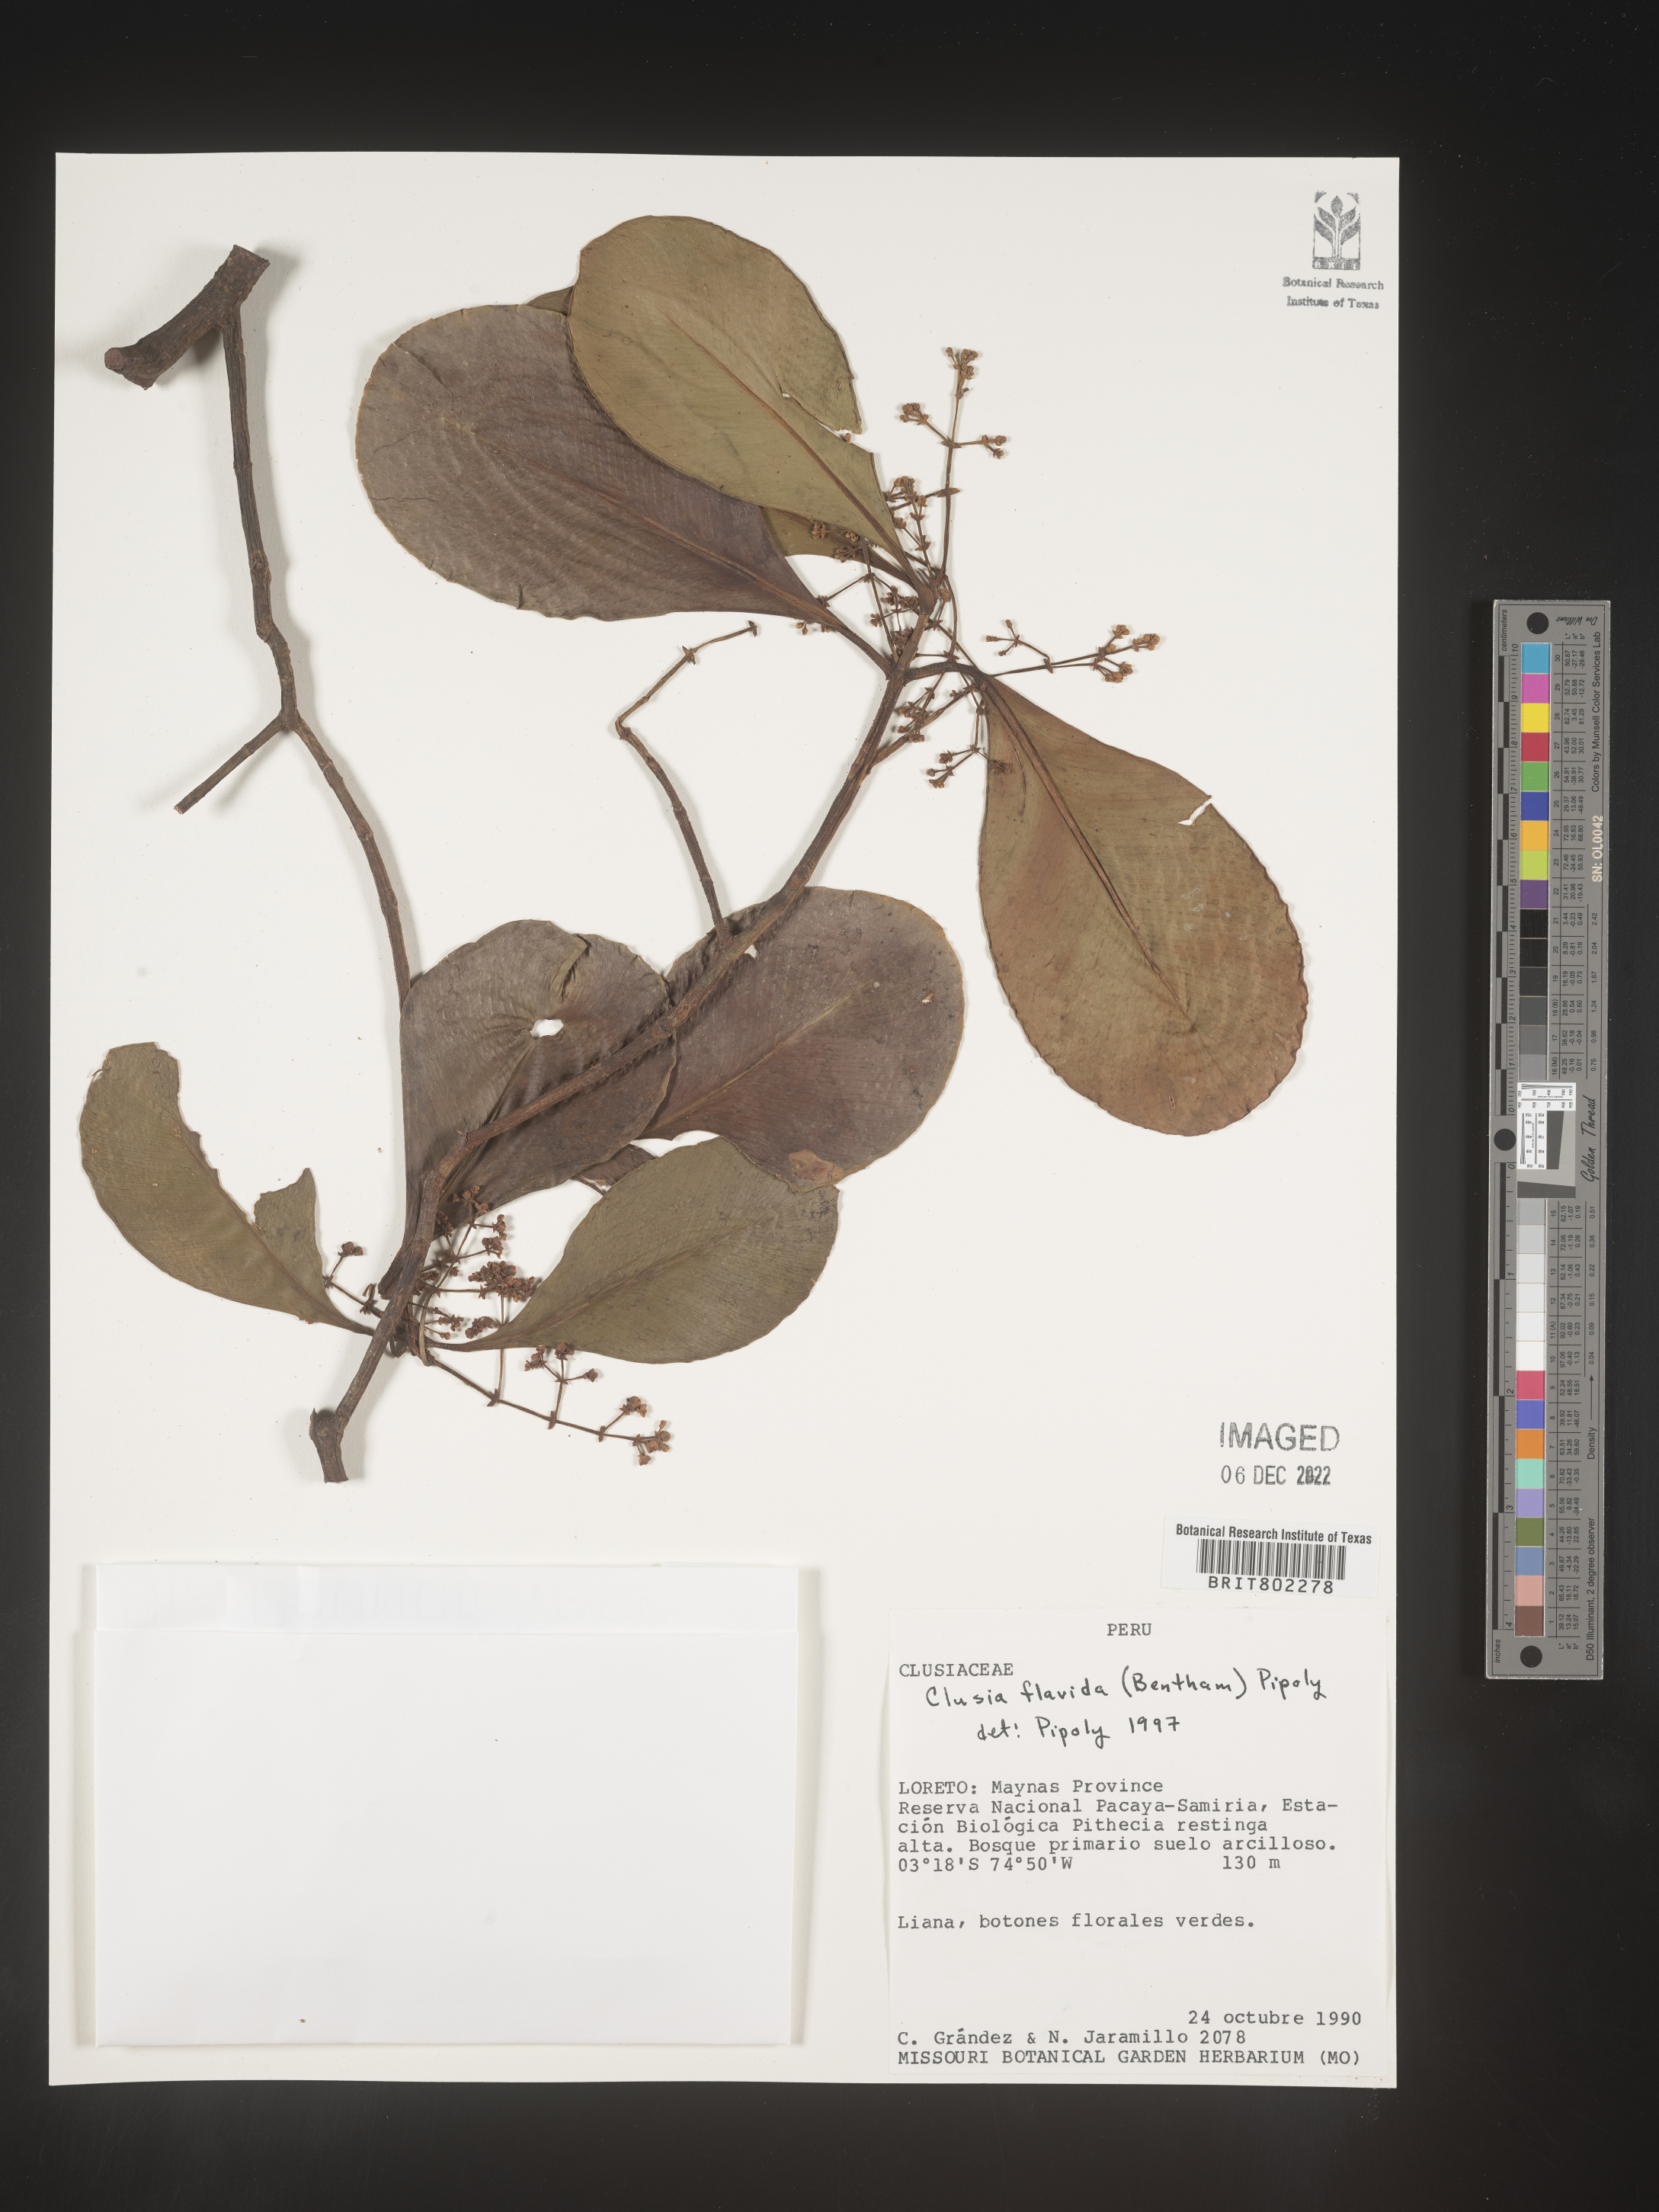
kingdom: Plantae
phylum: Tracheophyta
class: Magnoliopsida
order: Malpighiales
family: Clusiaceae
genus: Clusia
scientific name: Clusia flavida
